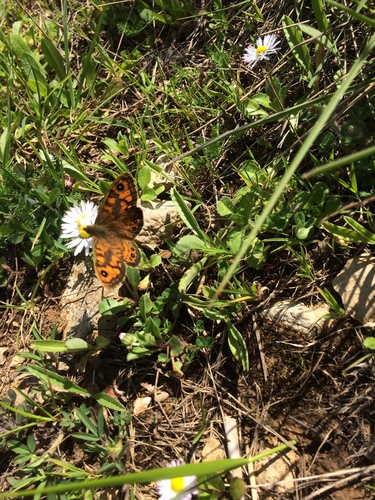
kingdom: Animalia
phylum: Arthropoda
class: Insecta
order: Lepidoptera
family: Nymphalidae
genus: Pararge
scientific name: Pararge Lasiommata megera
